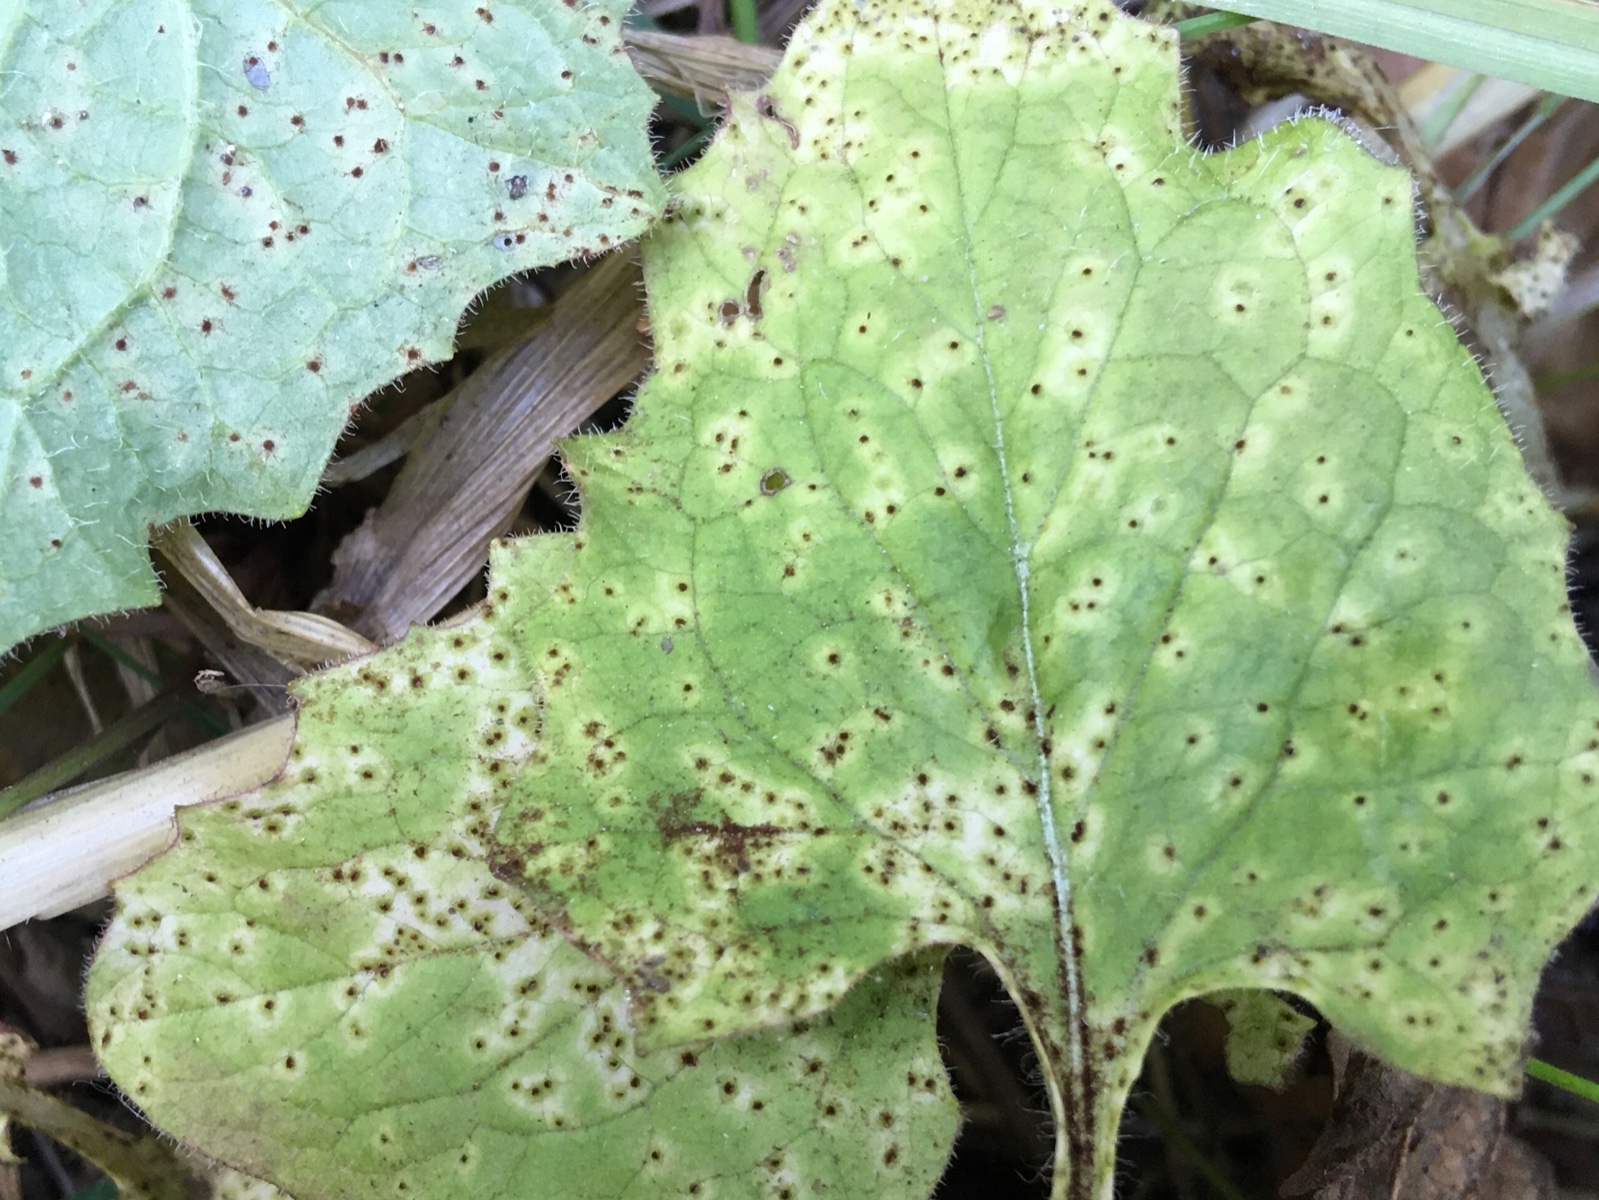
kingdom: Fungi
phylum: Basidiomycota
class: Pucciniomycetes
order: Pucciniales
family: Pucciniaceae
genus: Puccinia
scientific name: Puccinia lapsanae
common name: Nipplewort rust
